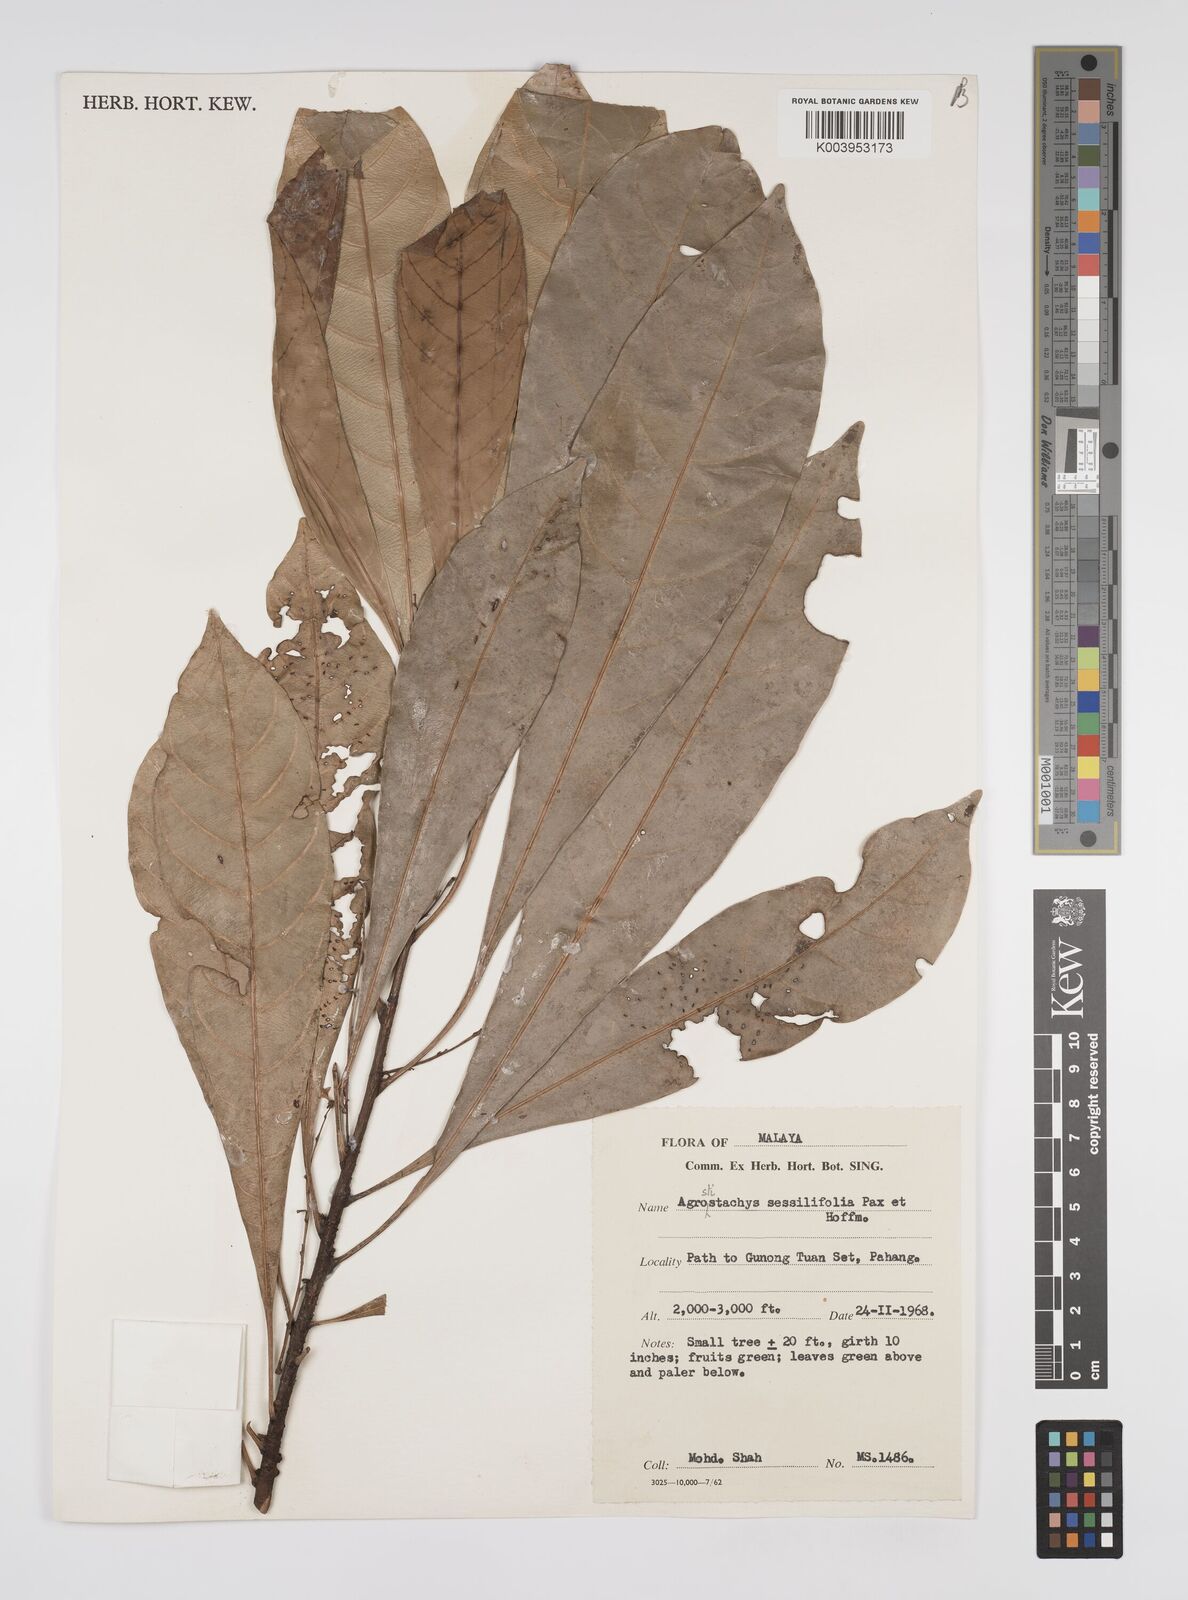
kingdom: Plantae
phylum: Tracheophyta
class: Magnoliopsida
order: Malpighiales
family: Euphorbiaceae
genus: Agrostistachys
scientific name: Agrostistachys borneensis
